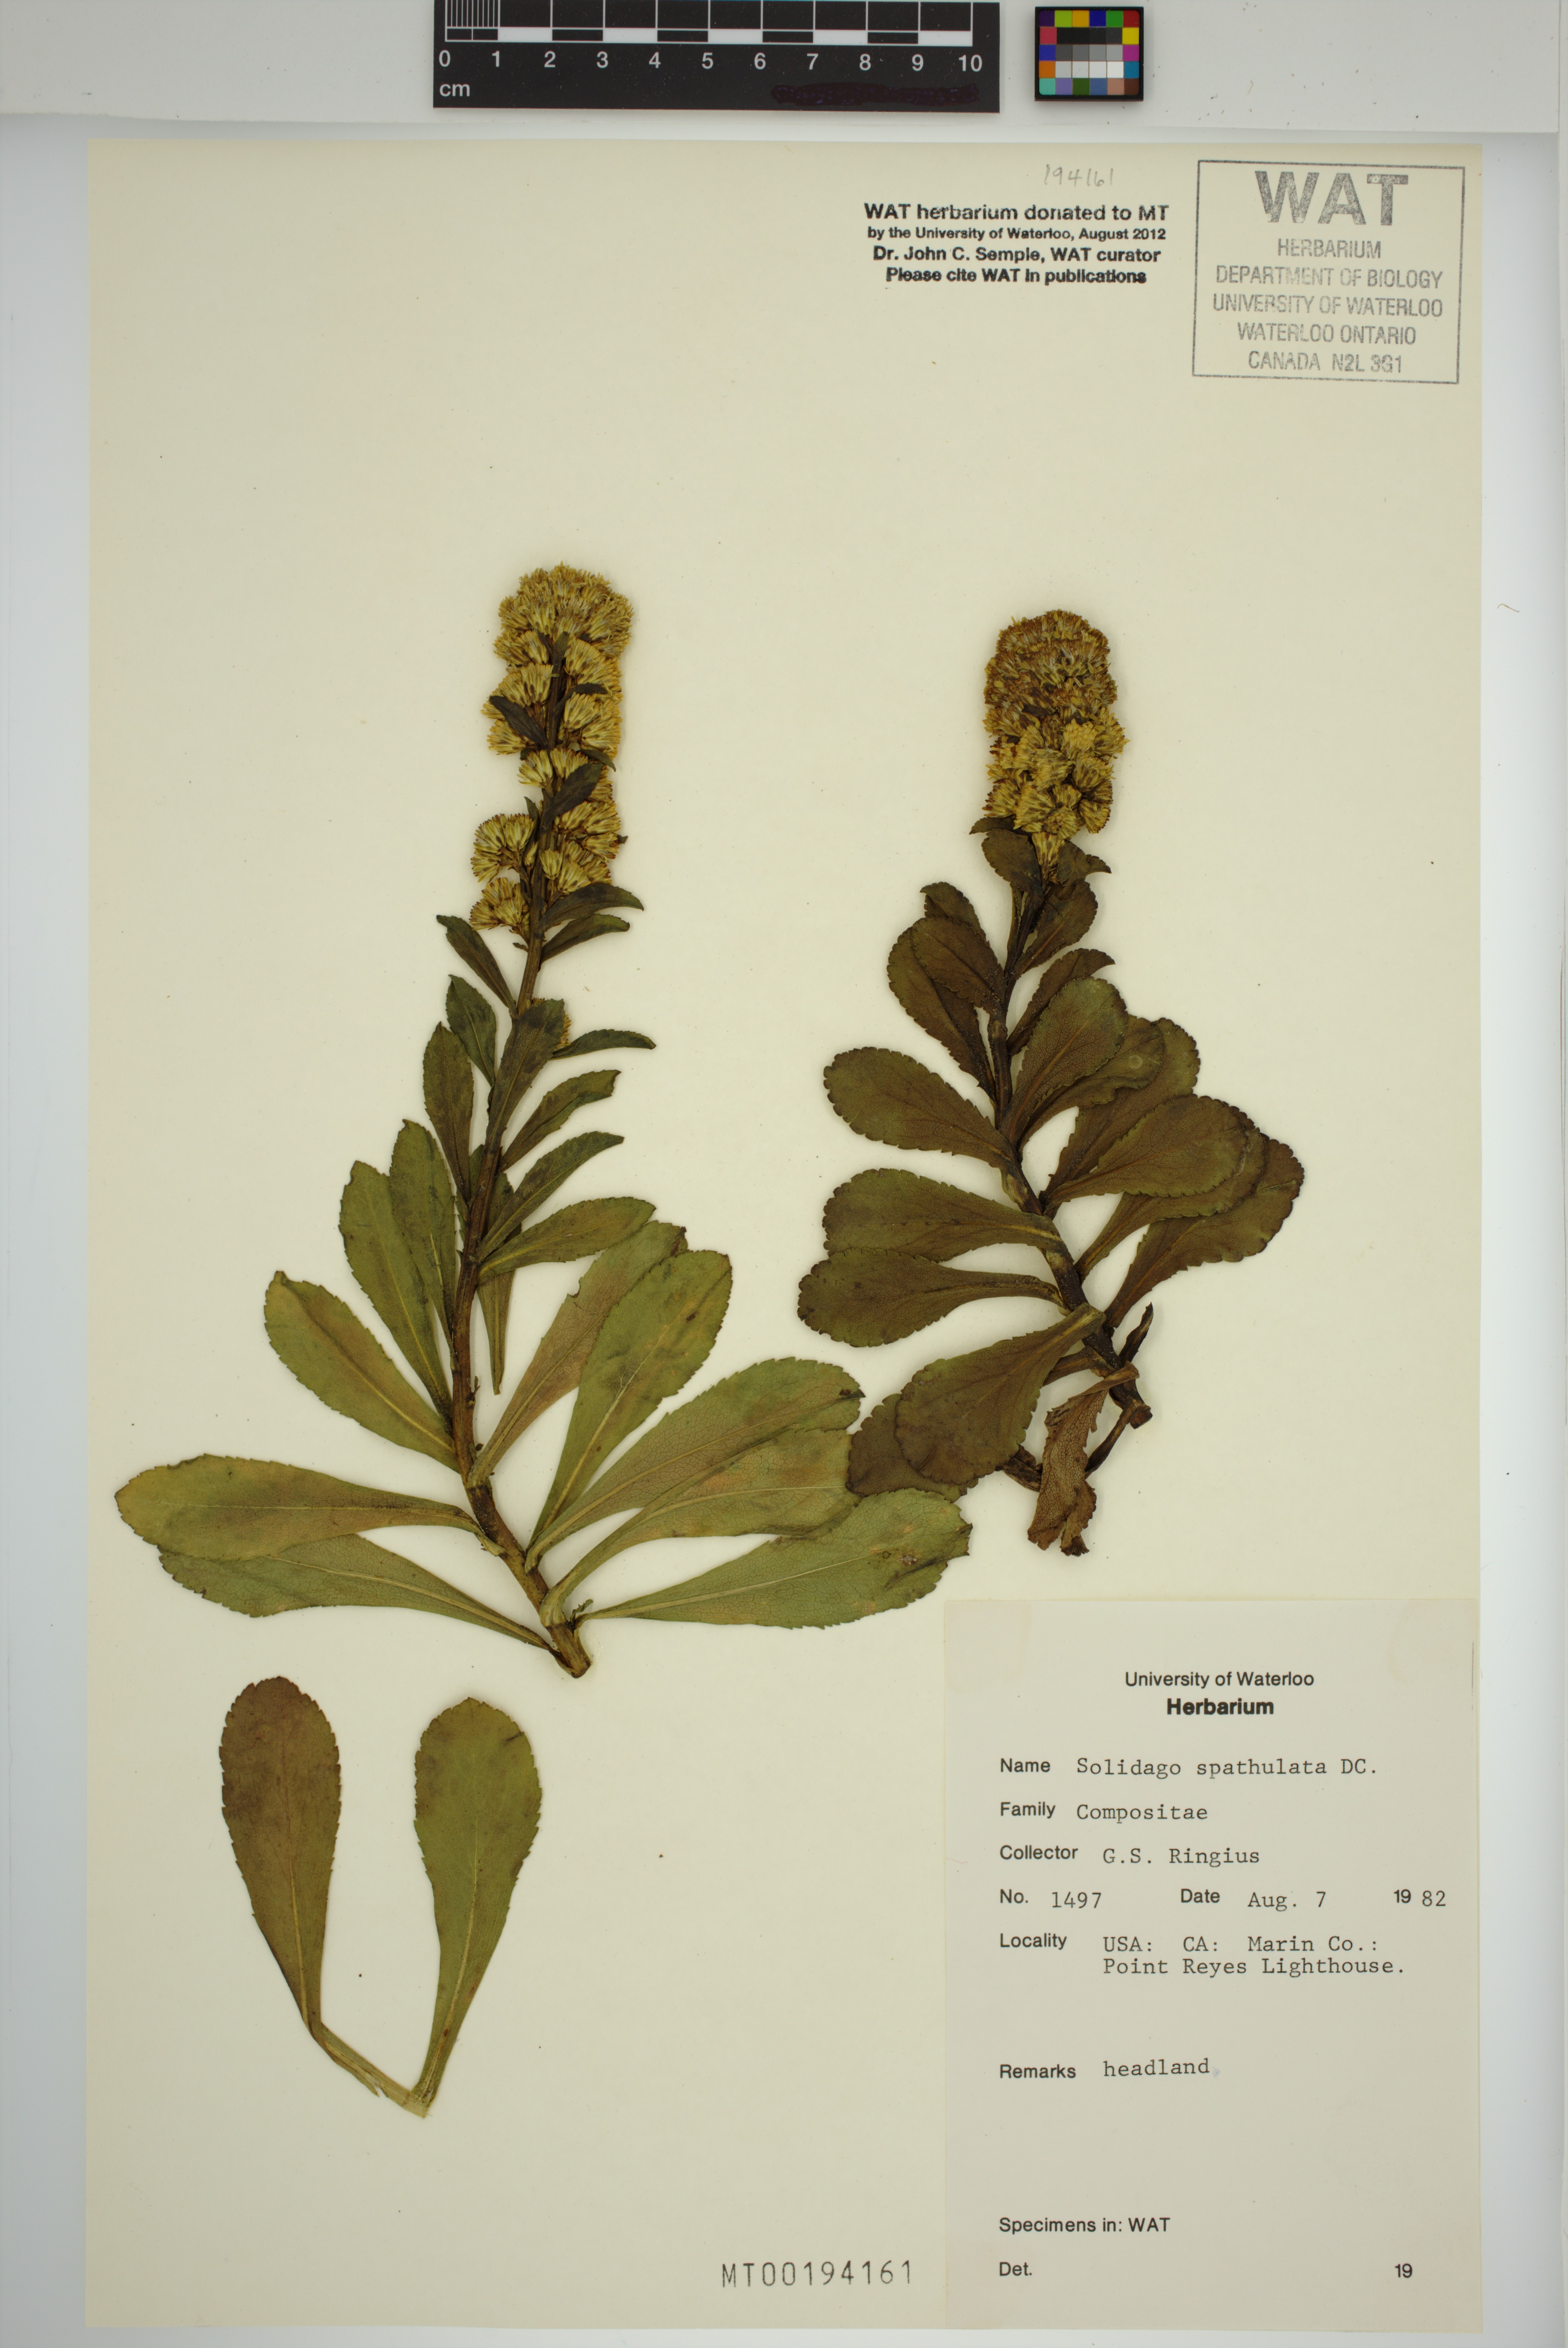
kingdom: Plantae
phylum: Tracheophyta
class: Magnoliopsida
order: Asterales
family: Asteraceae
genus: Solidago
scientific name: Solidago spathulata
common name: Coast goldenrod
